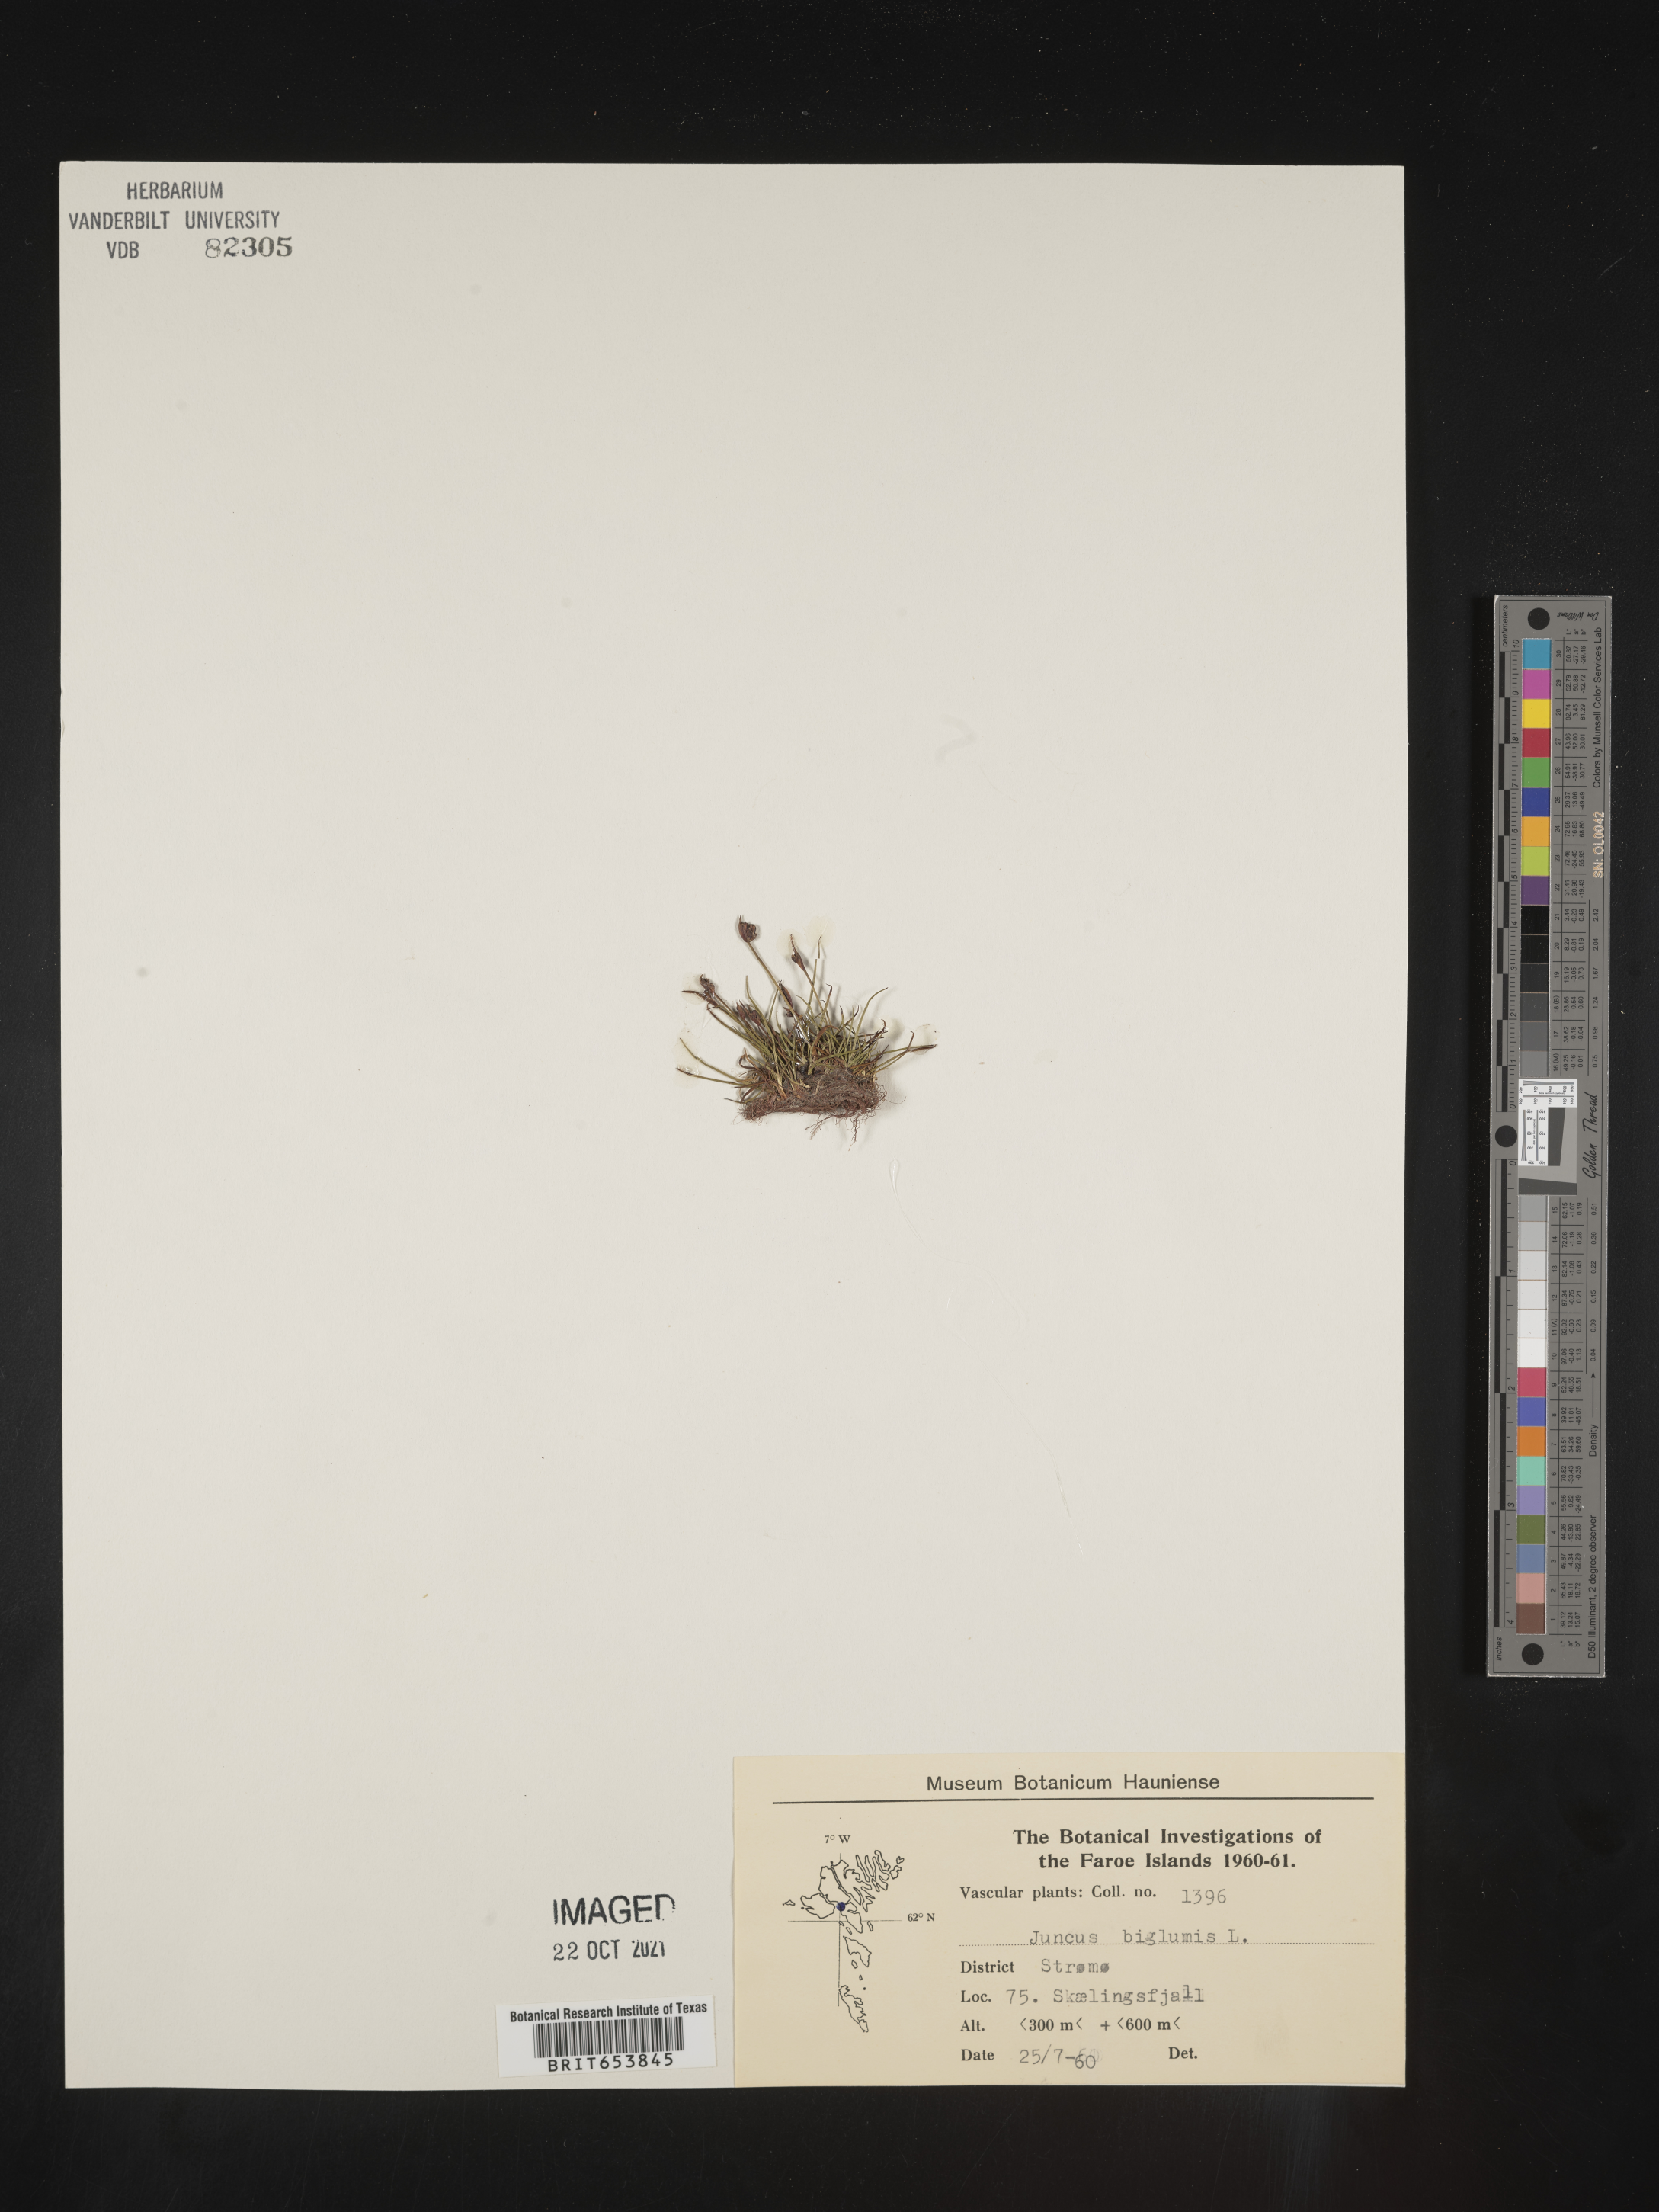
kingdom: Plantae
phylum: Tracheophyta
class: Liliopsida
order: Poales
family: Juncaceae
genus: Juncus
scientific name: Juncus
